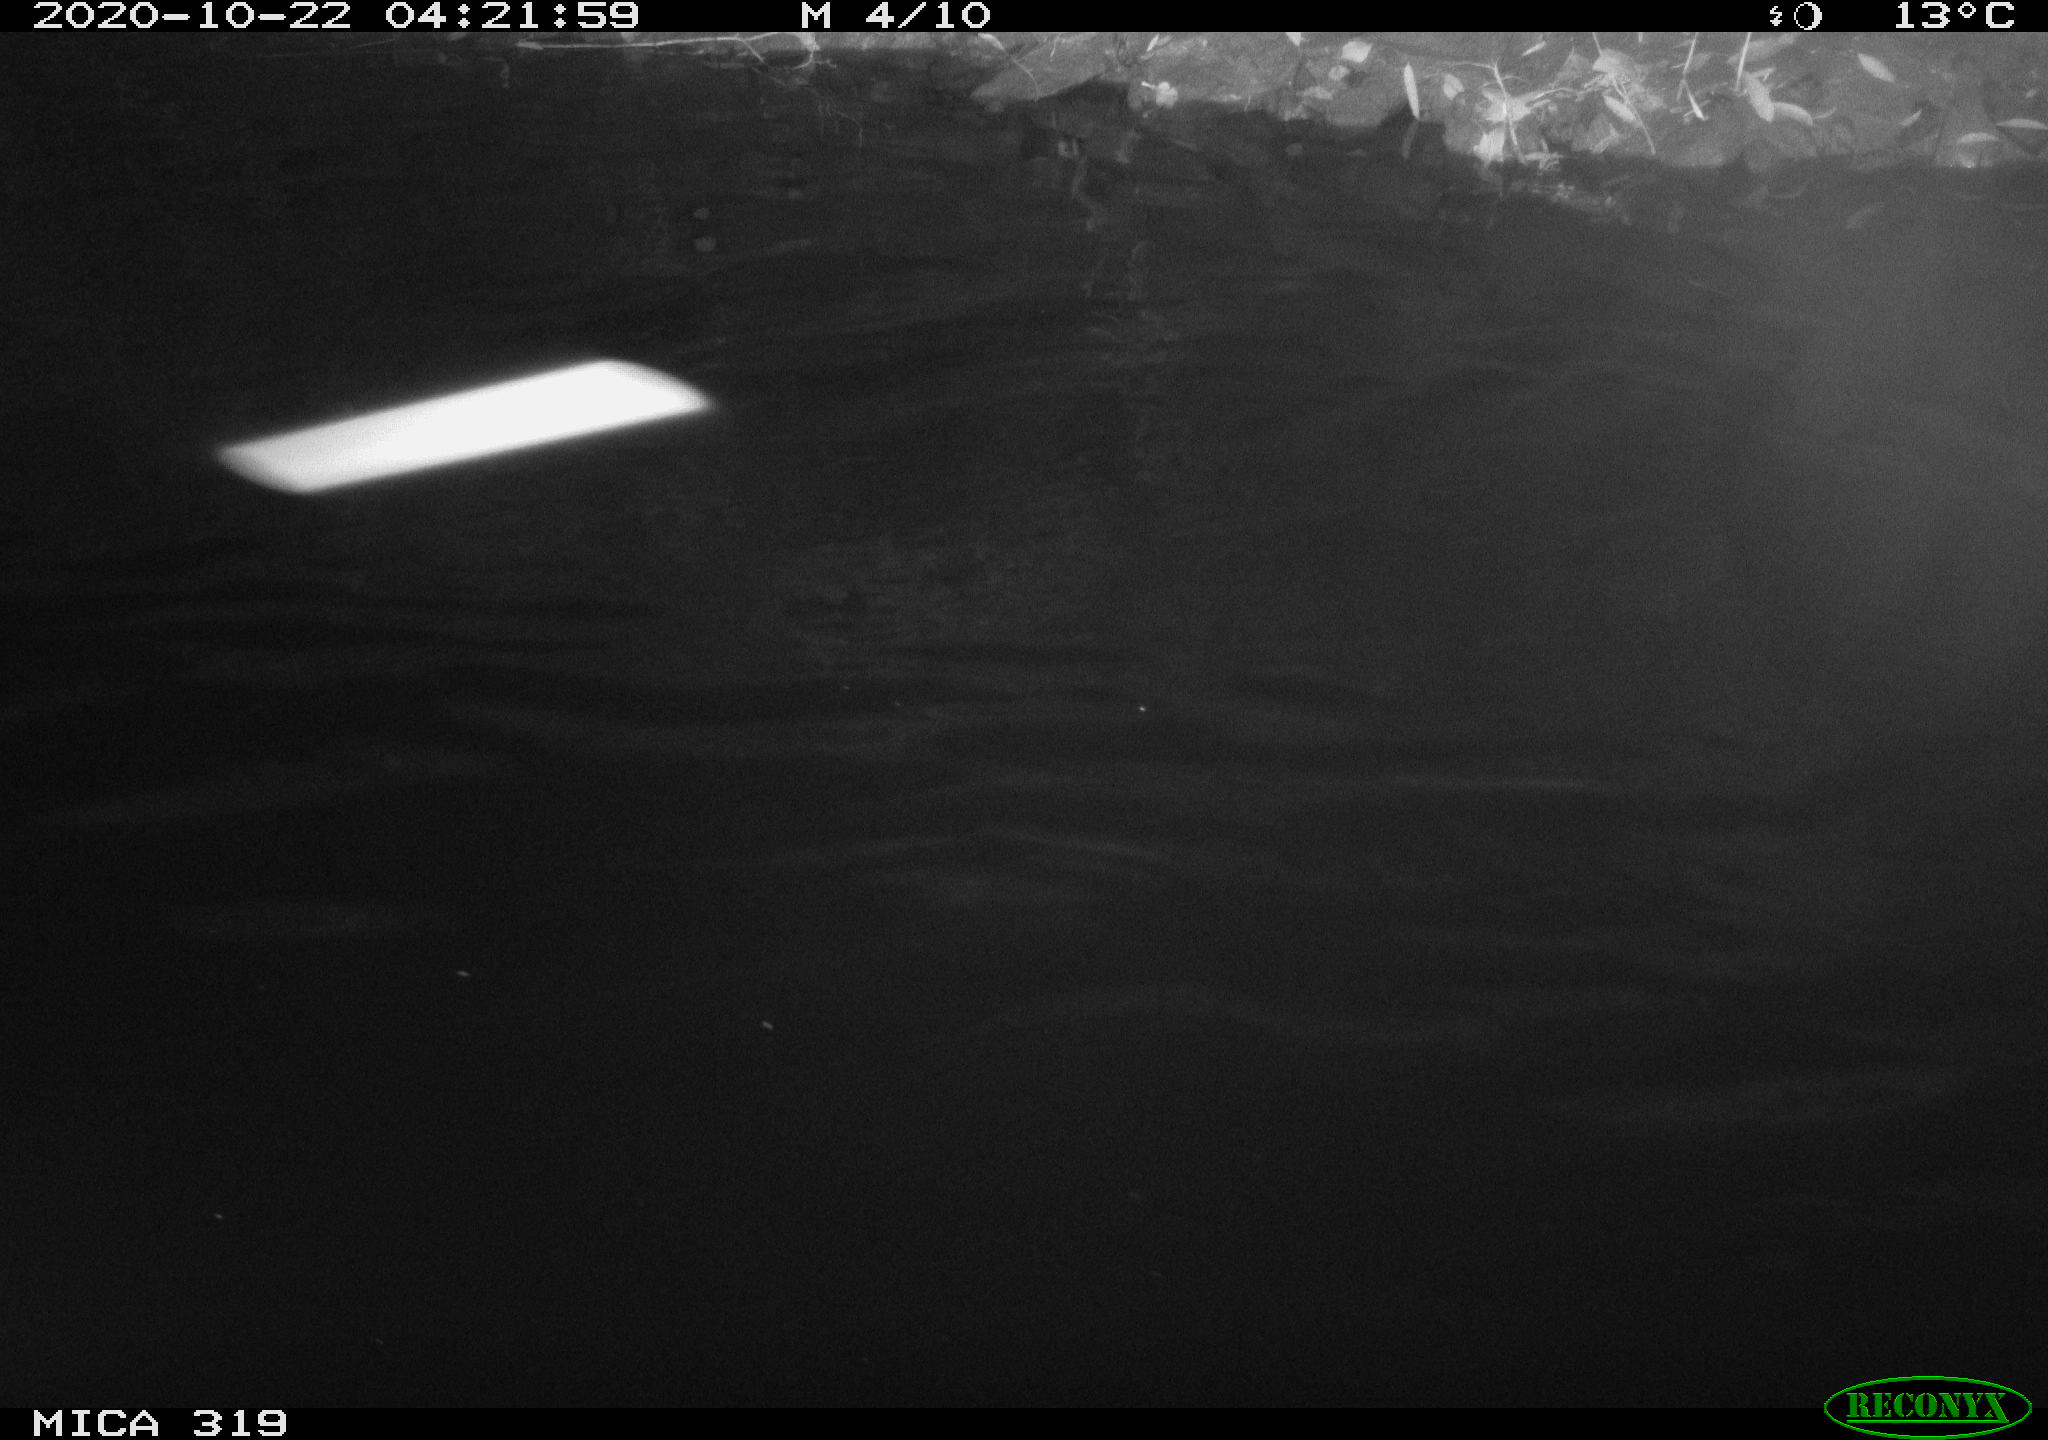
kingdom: Animalia
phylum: Chordata
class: Aves
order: Anseriformes
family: Anatidae
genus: Anas
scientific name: Anas platyrhynchos
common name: Mallard
